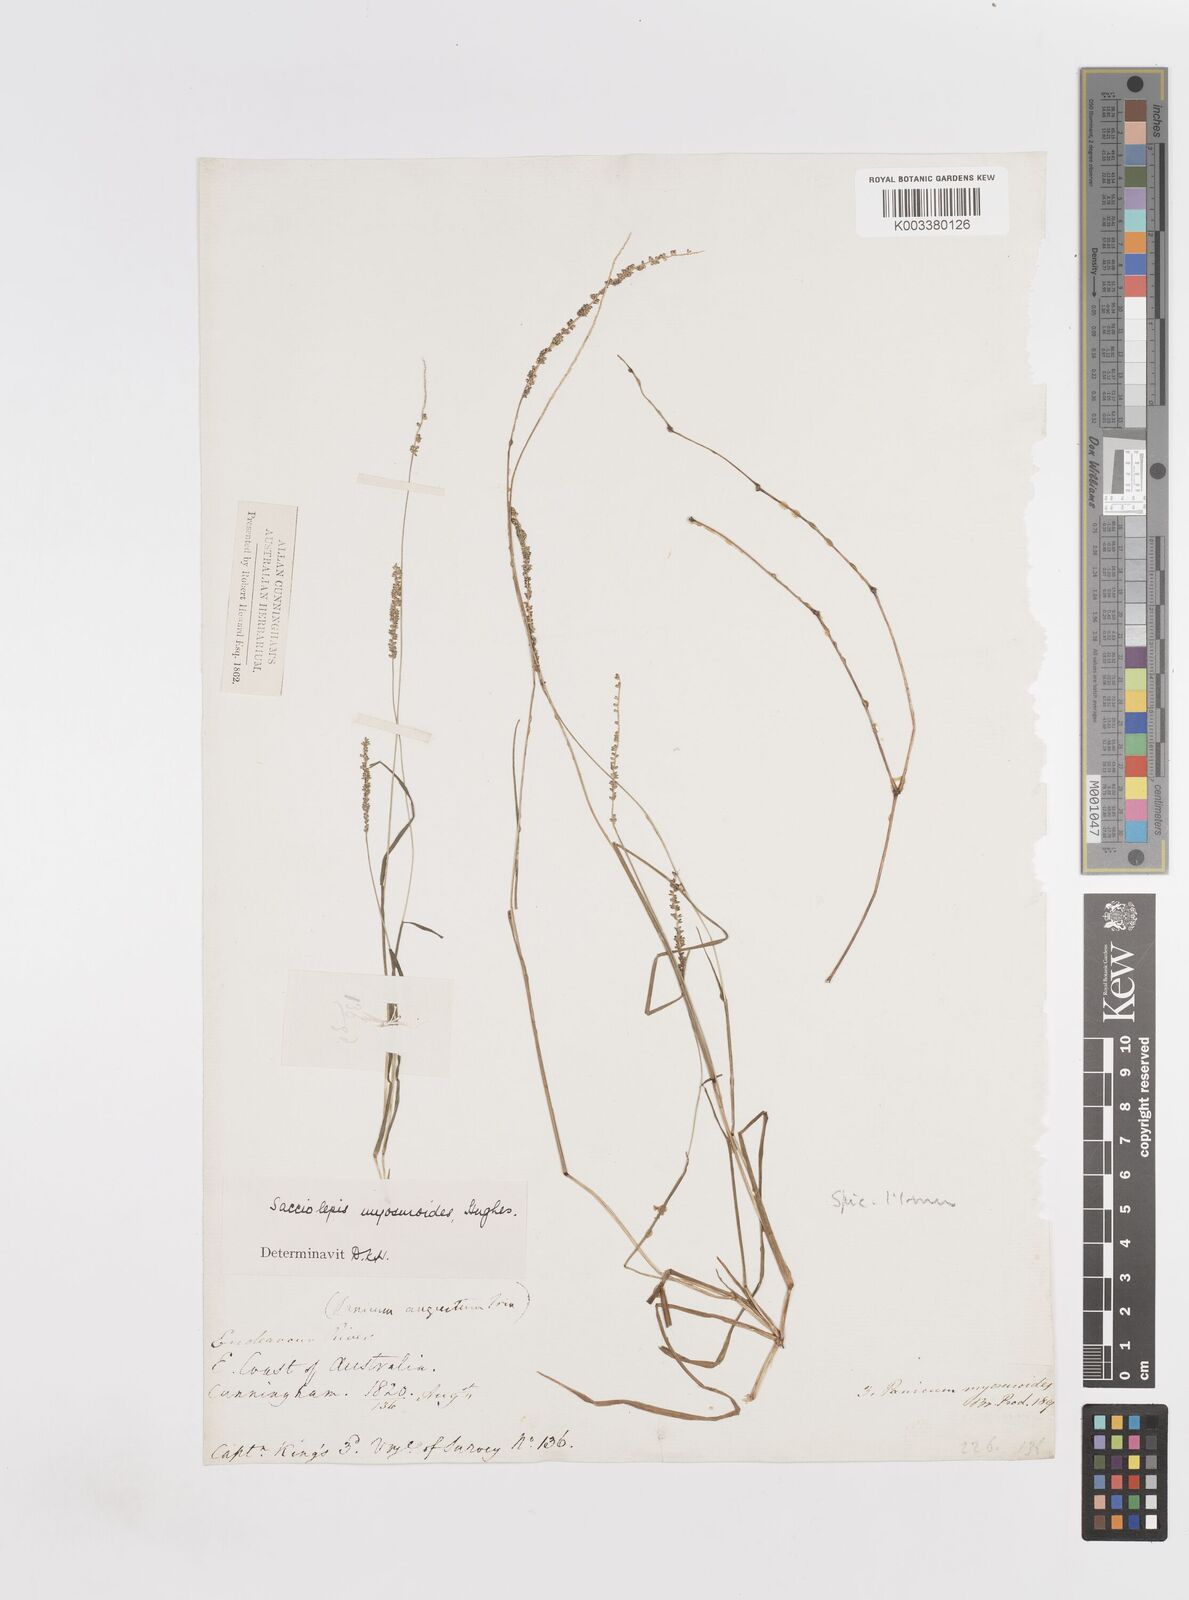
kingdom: Plantae
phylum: Tracheophyta
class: Liliopsida
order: Poales
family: Poaceae
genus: Sacciolepis
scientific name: Sacciolepis myosuroides
